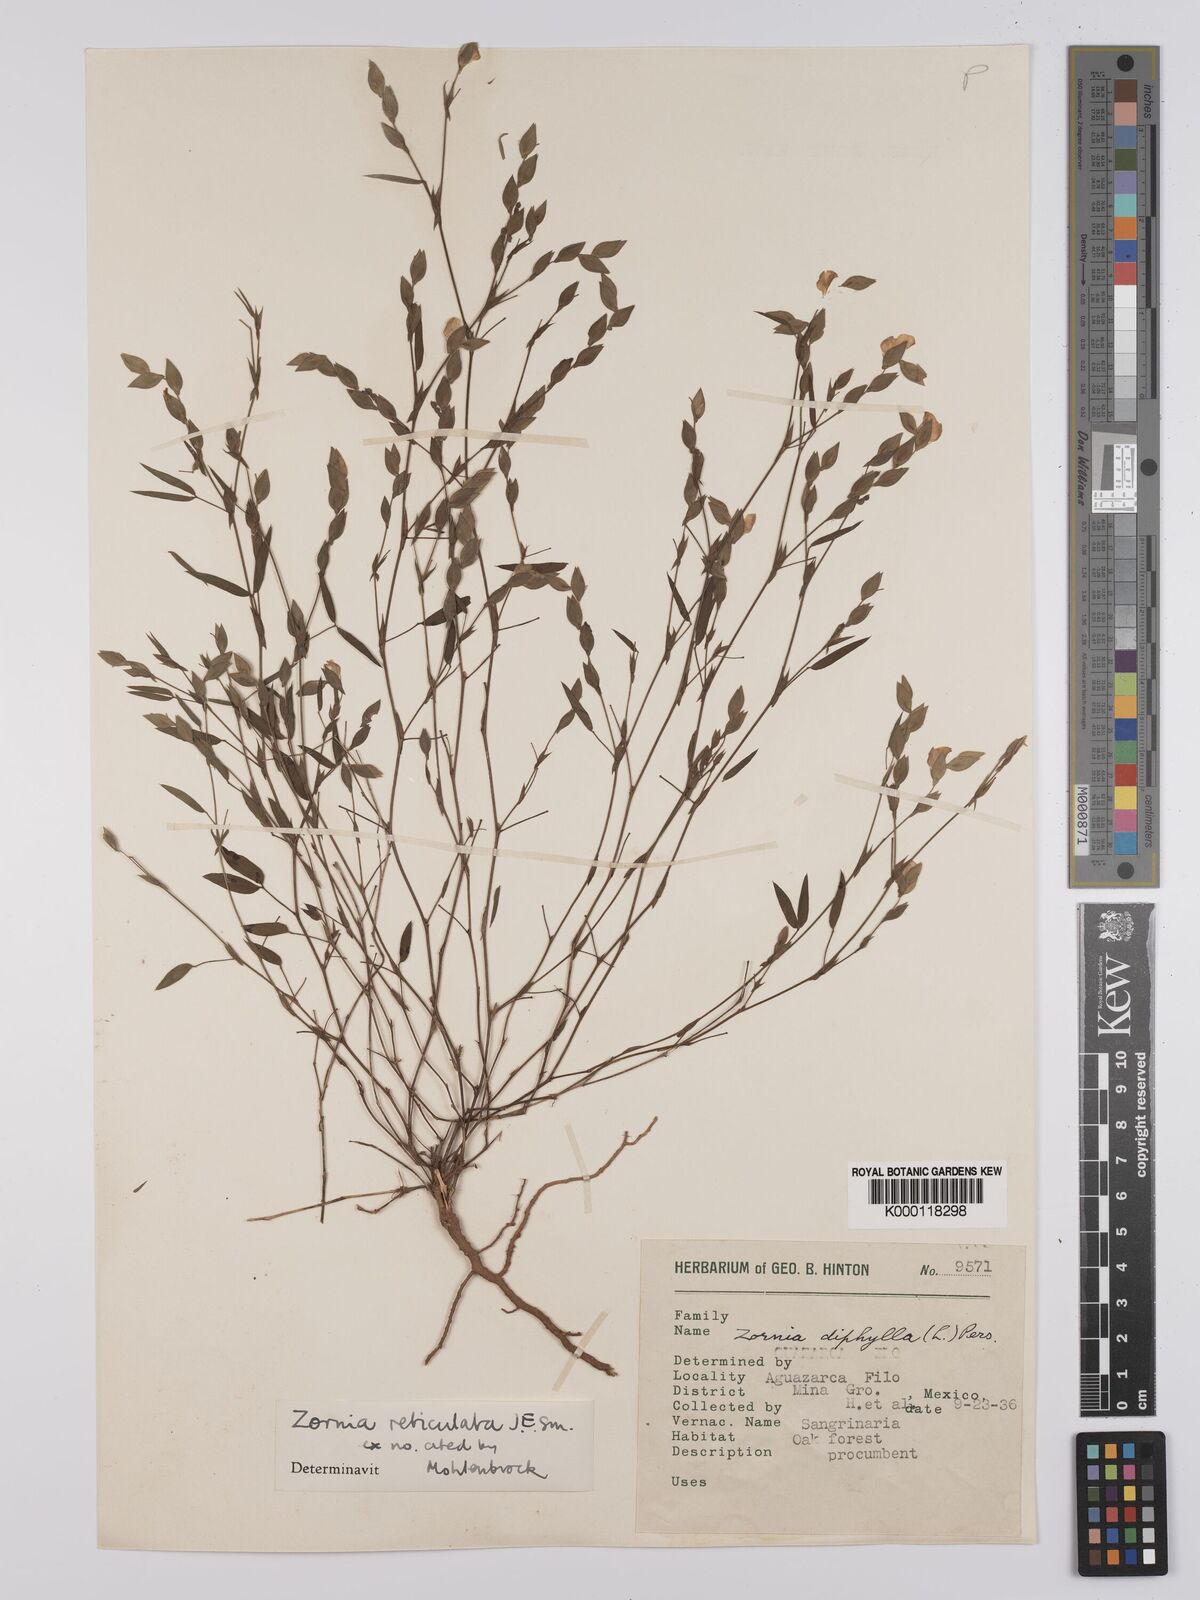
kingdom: Plantae
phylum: Tracheophyta
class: Magnoliopsida
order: Fabales
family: Fabaceae
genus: Zornia
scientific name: Zornia reticulata
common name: Reticulate viperina
